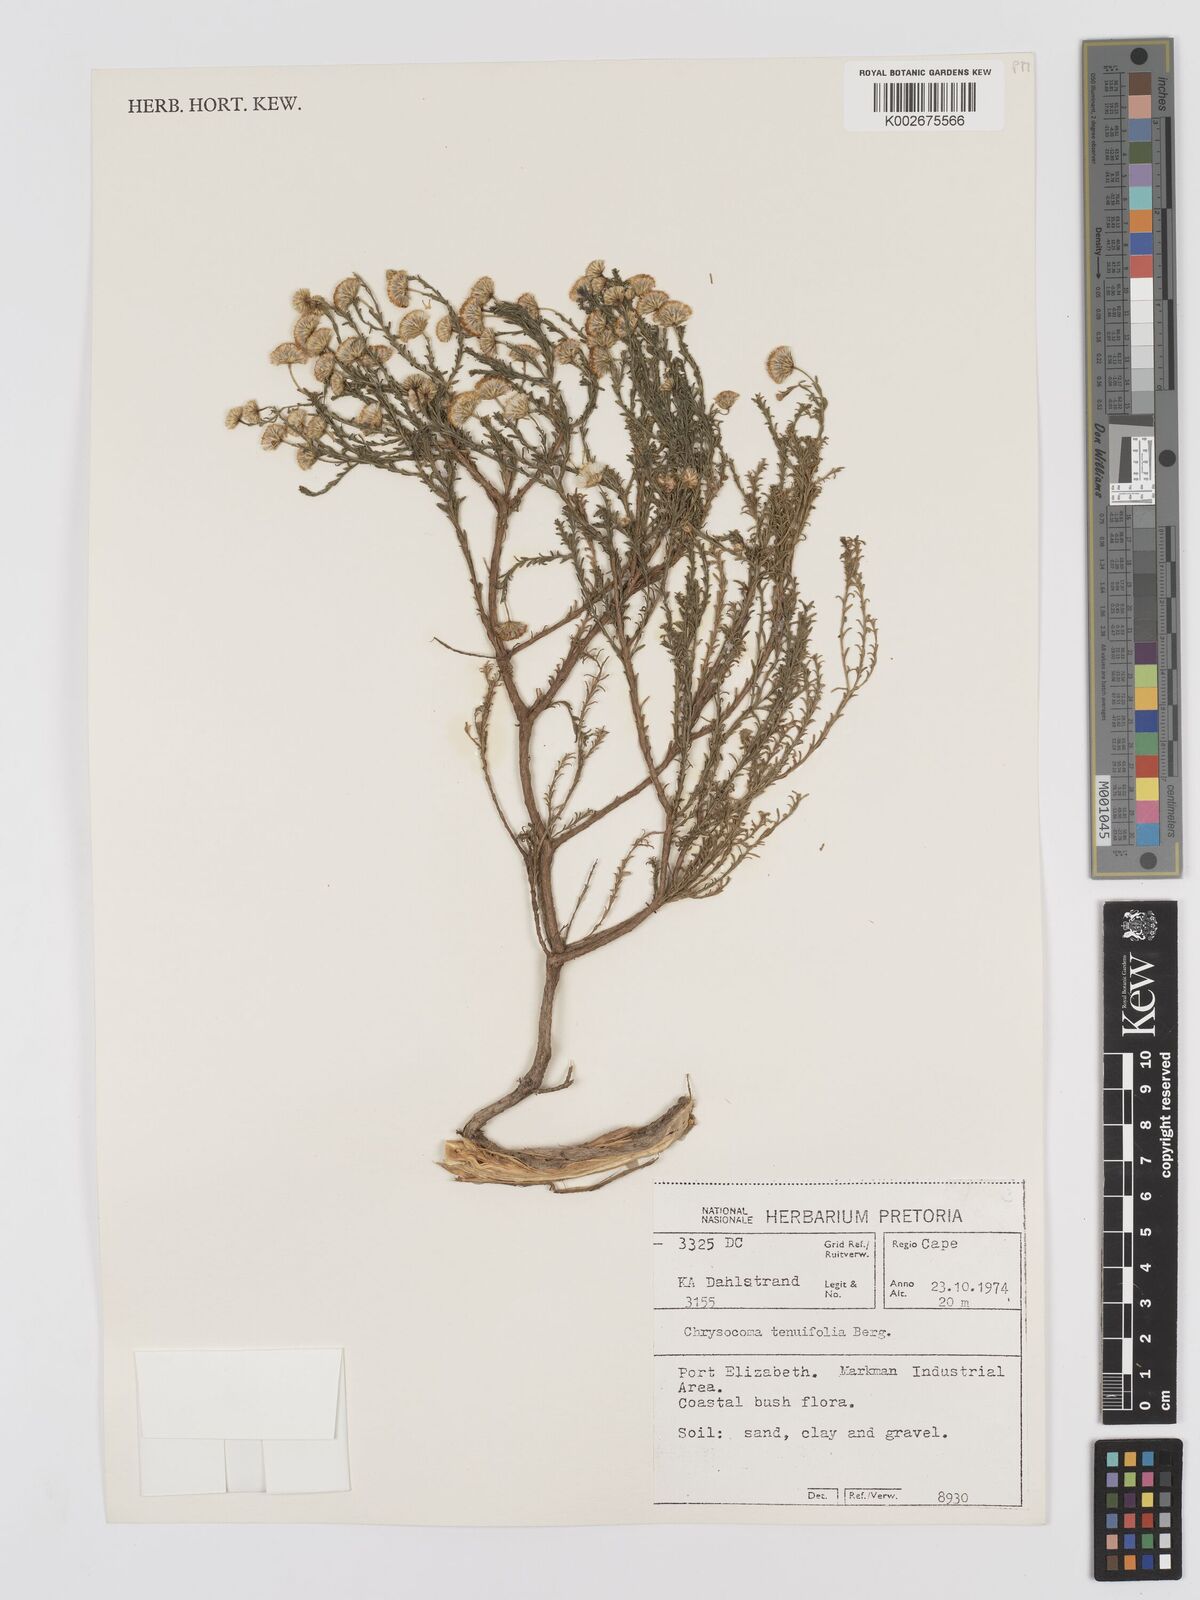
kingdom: Plantae
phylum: Tracheophyta
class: Magnoliopsida
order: Asterales
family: Asteraceae
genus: Chrysocoma
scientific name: Chrysocoma ciliata
